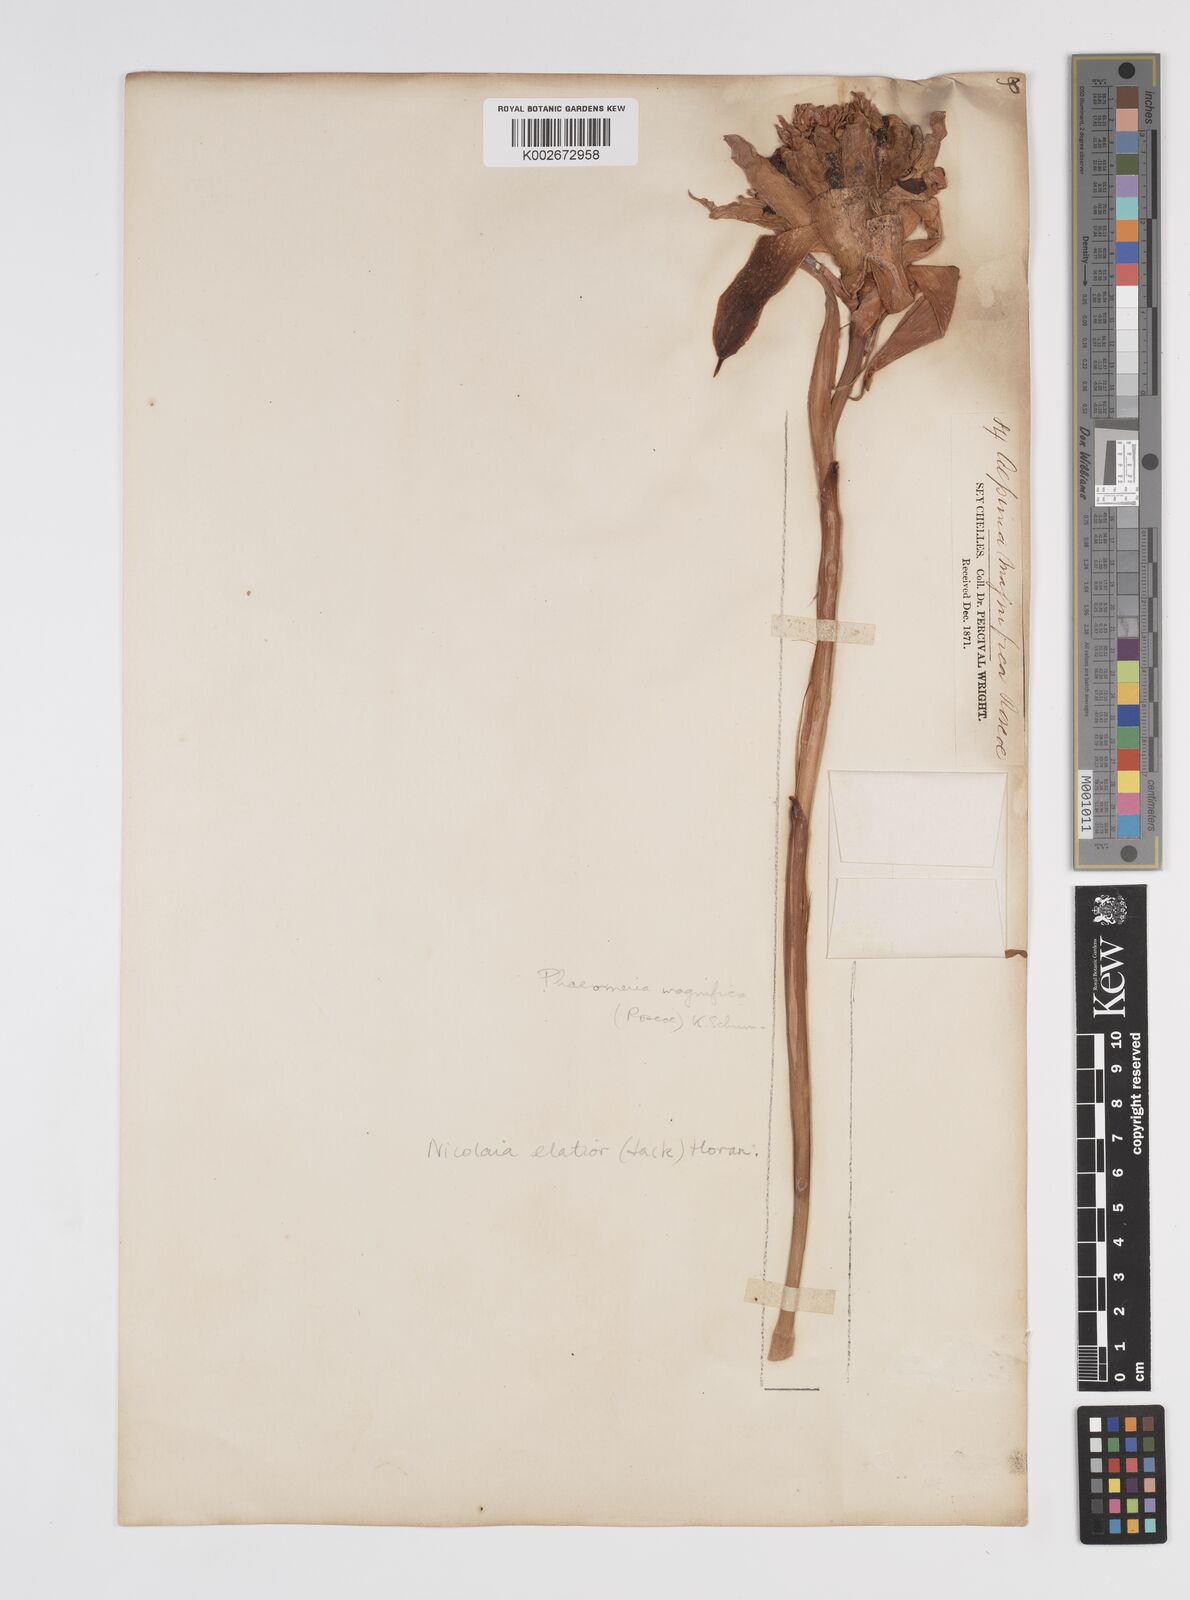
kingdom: Plantae
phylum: Tracheophyta
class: Liliopsida
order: Zingiberales
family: Zingiberaceae
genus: Etlingera
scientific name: Etlingera elatior
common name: Philippine waxflower
